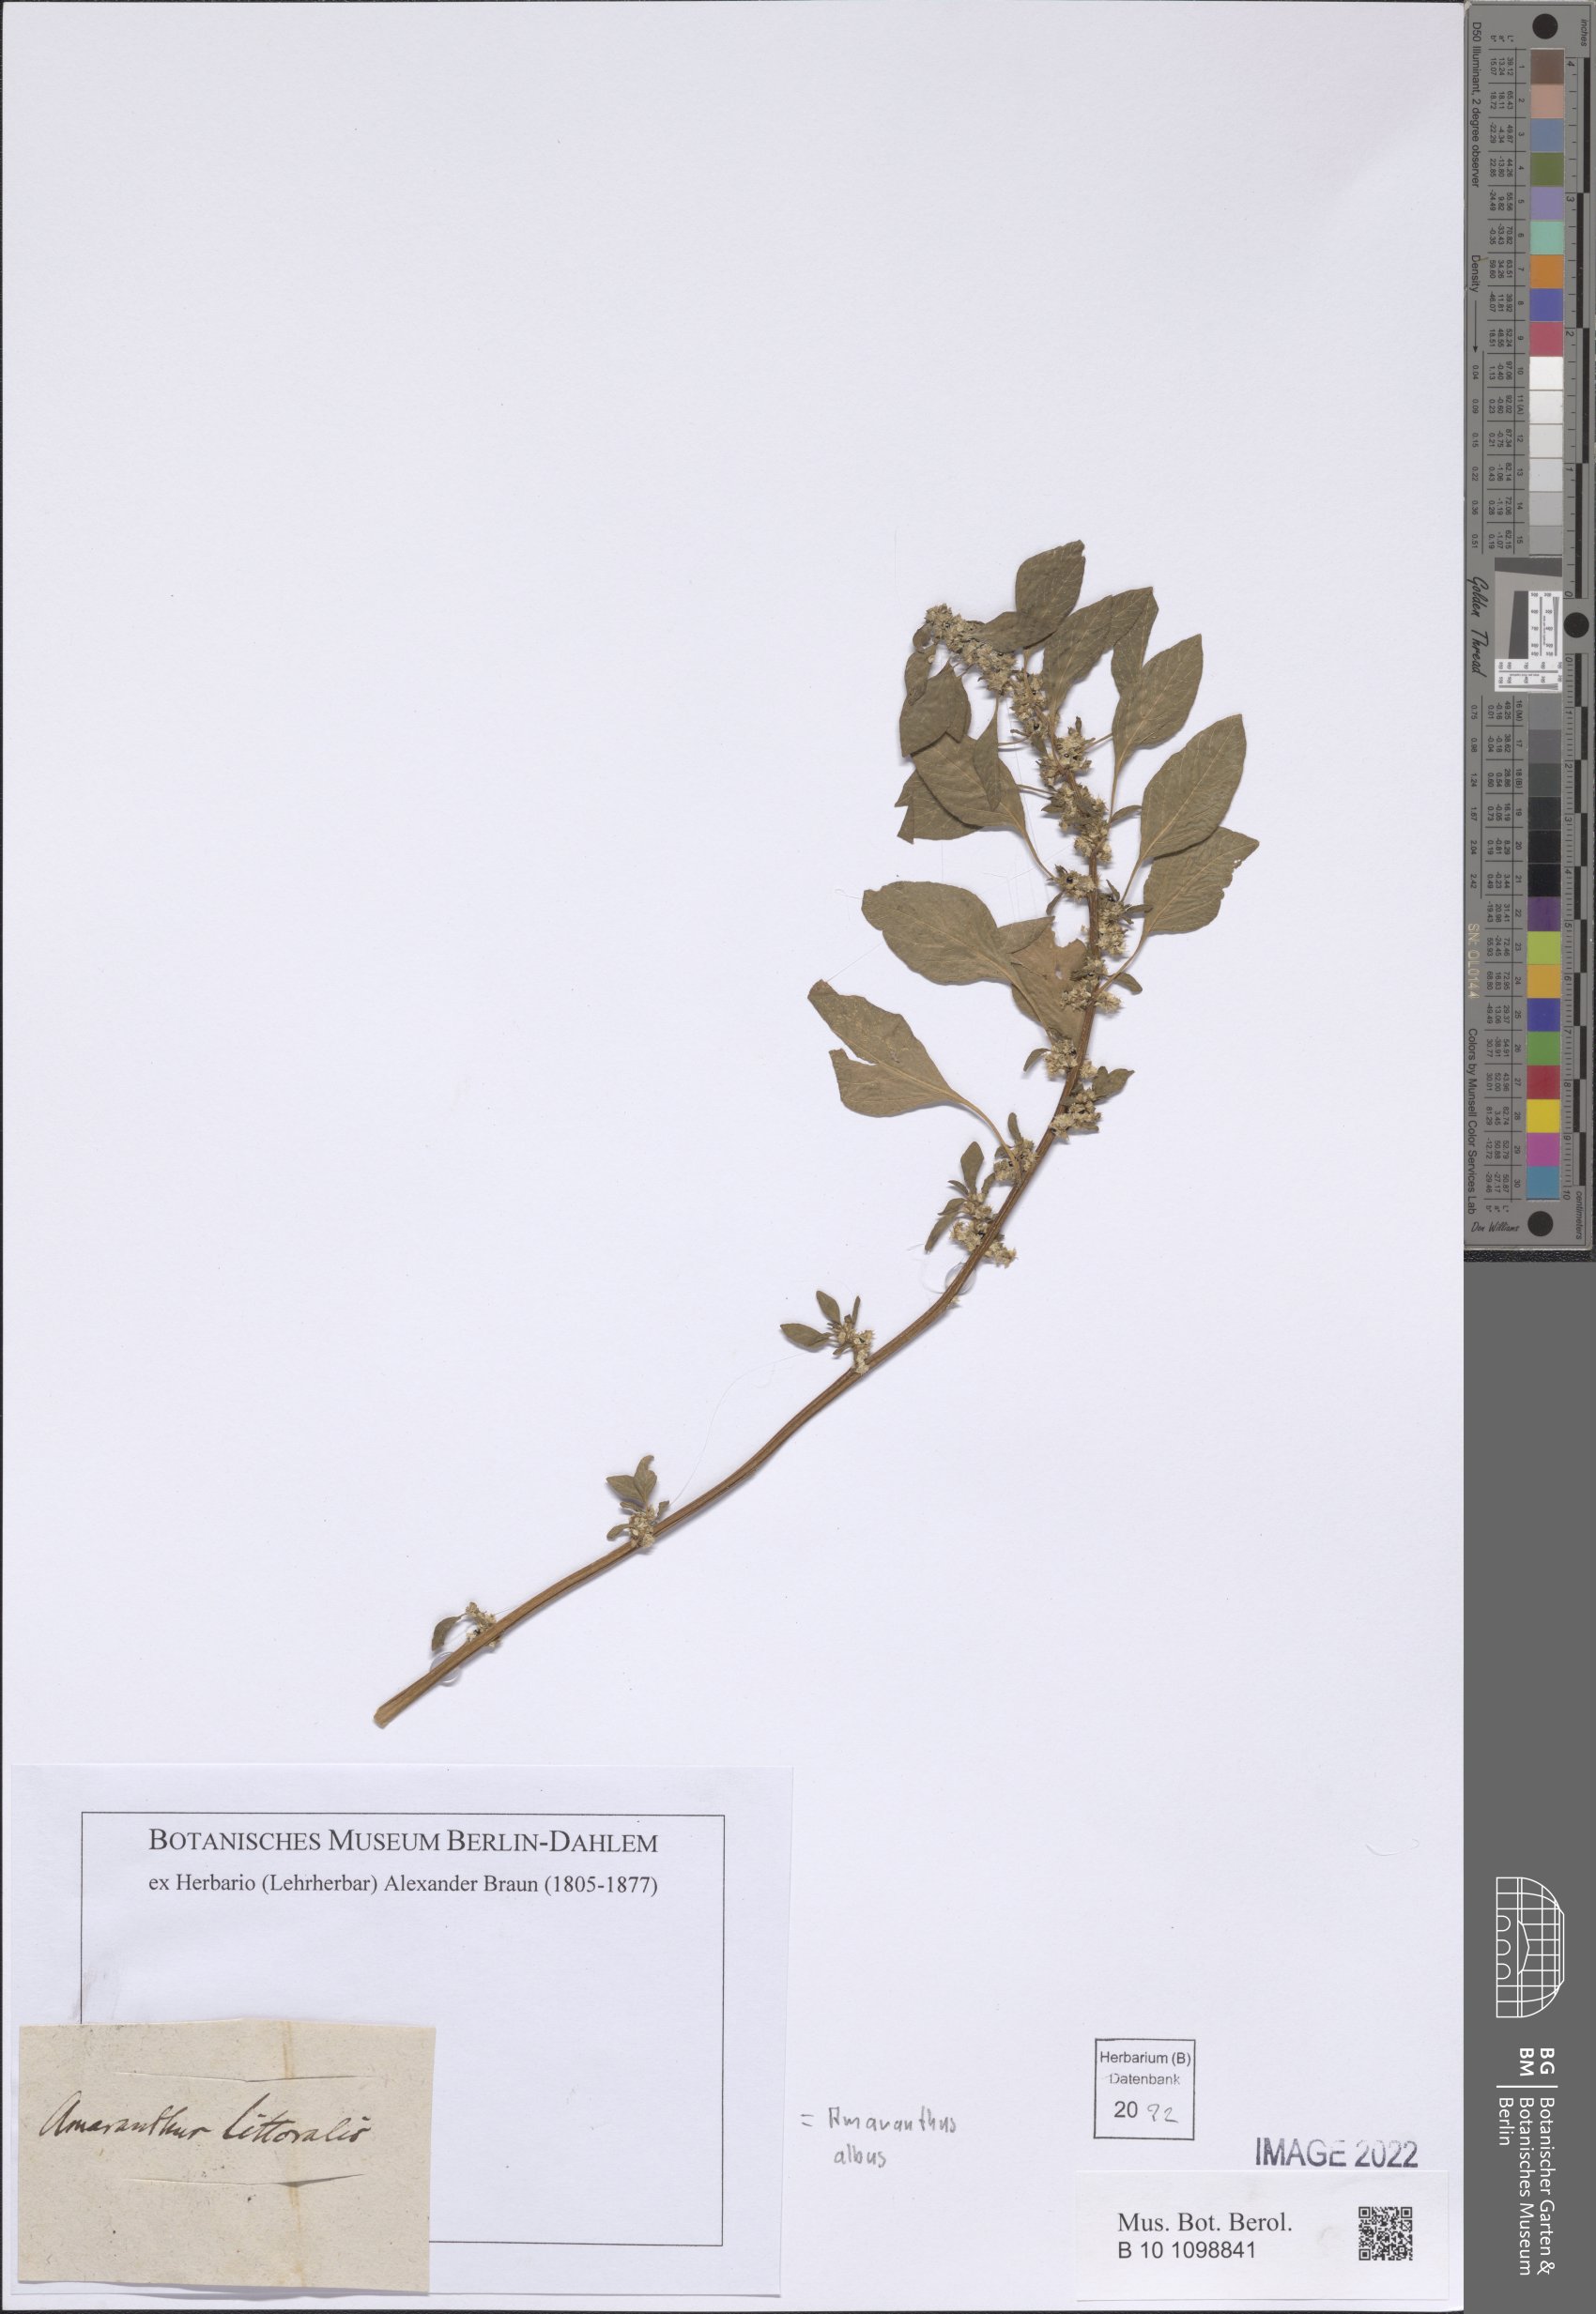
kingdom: Plantae
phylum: Tracheophyta
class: Magnoliopsida
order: Caryophyllales
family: Amaranthaceae
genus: Amaranthus
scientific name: Amaranthus albus
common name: White pigweed
